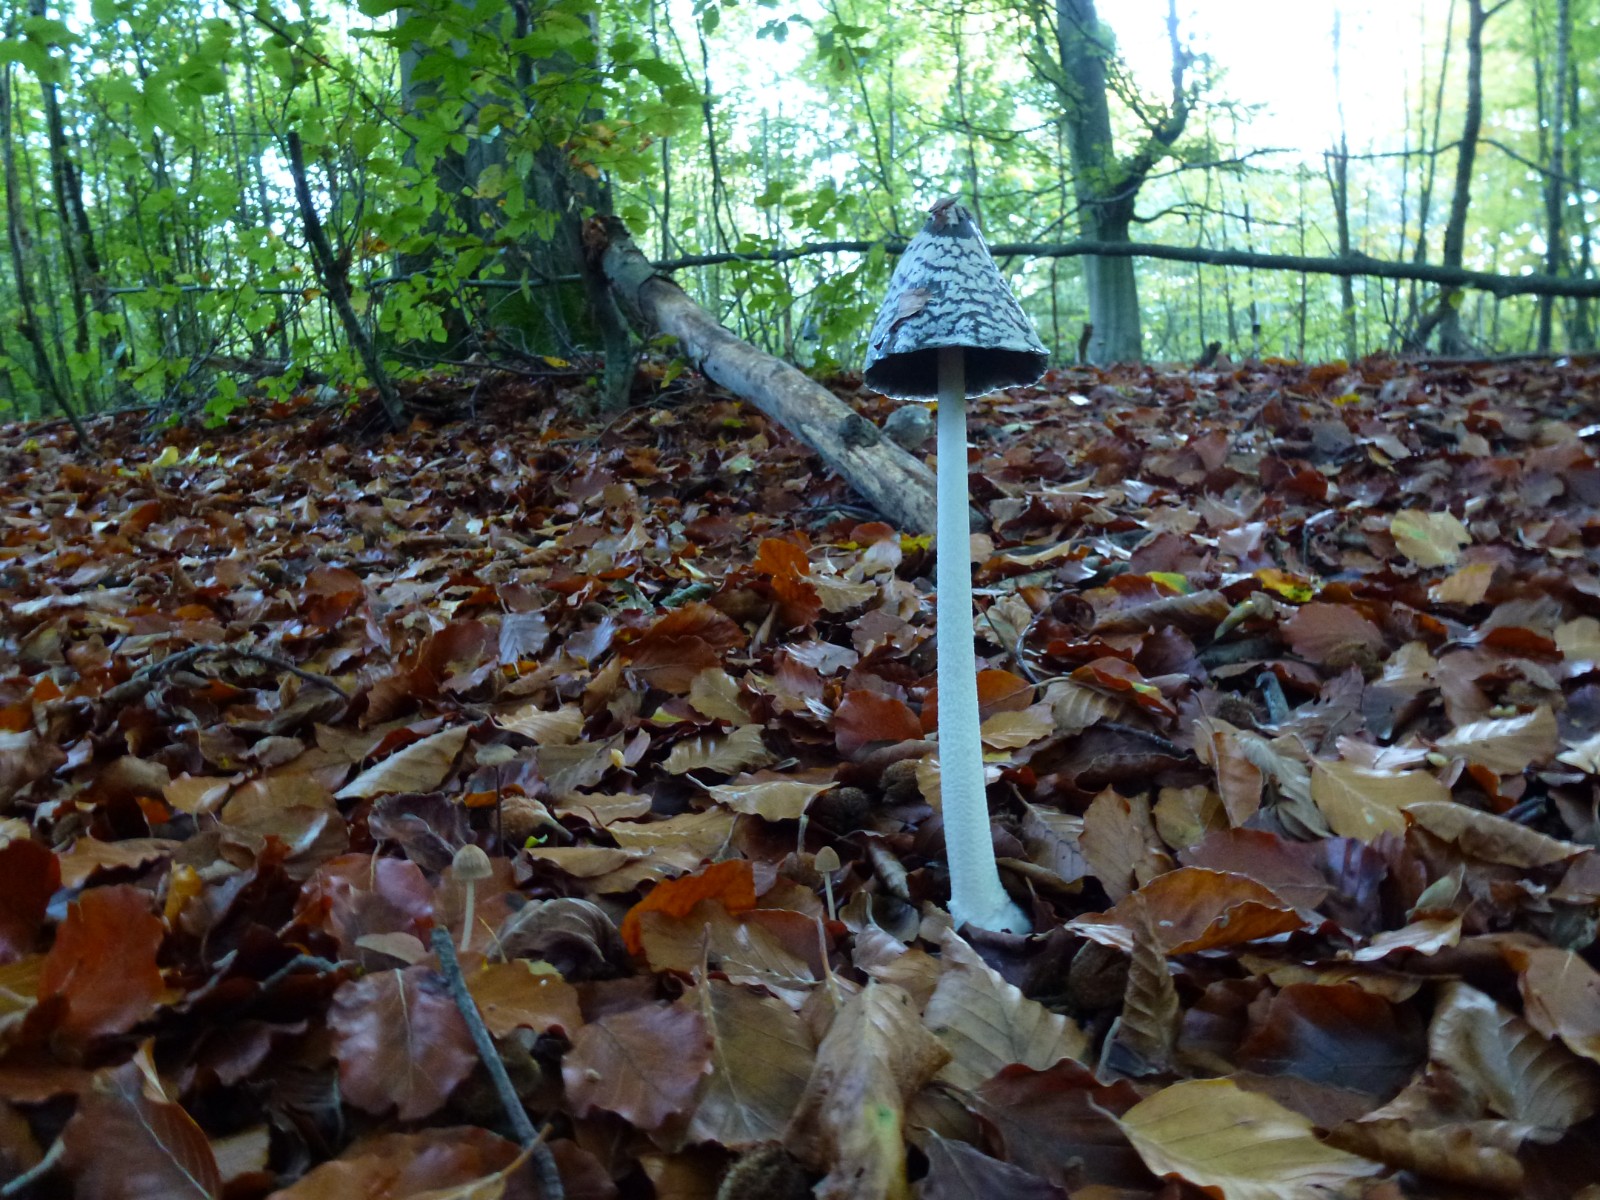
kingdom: Fungi
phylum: Basidiomycota
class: Agaricomycetes
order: Agaricales
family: Psathyrellaceae
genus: Coprinopsis
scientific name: Coprinopsis picacea
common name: skade-blækhat
